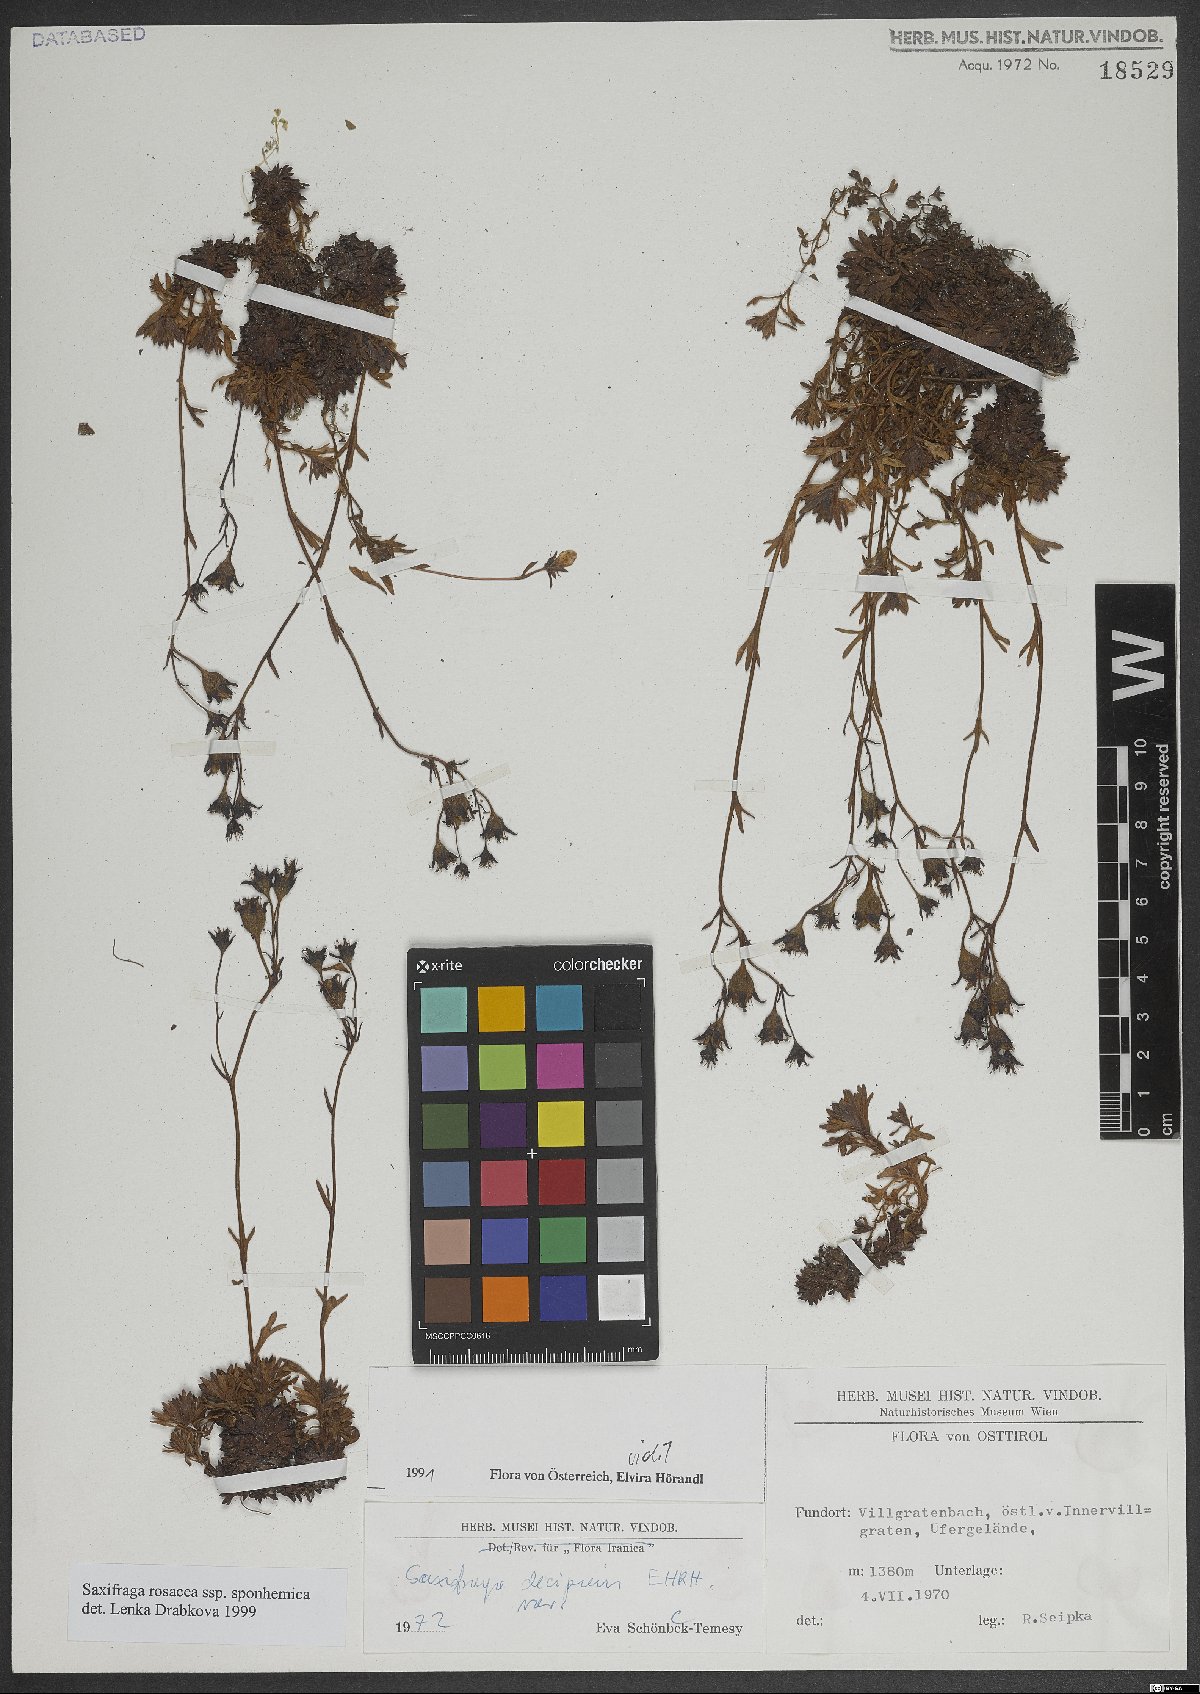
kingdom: Plantae
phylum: Tracheophyta
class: Magnoliopsida
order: Saxifragales
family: Saxifragaceae
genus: Saxifraga
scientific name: Saxifraga rosacea
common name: Irish saxifrage
